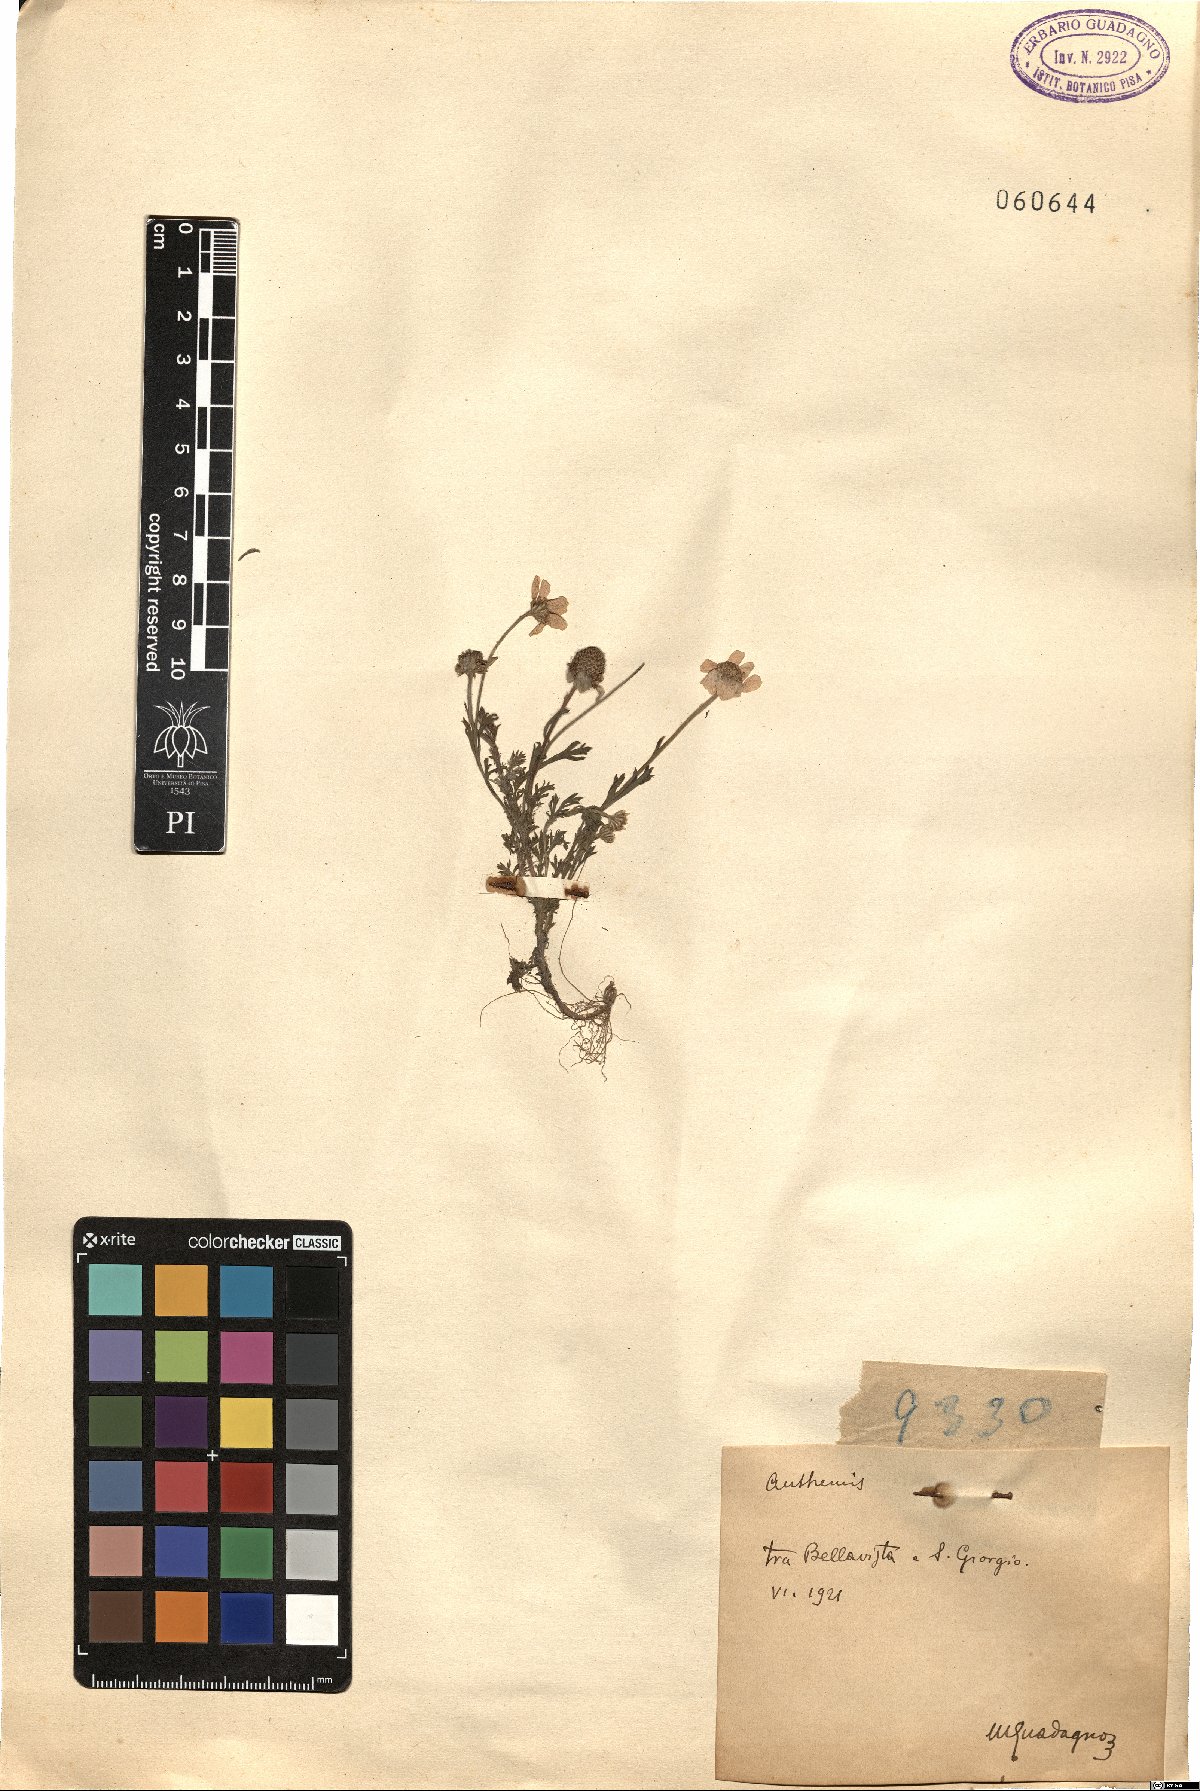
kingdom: Plantae
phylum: Tracheophyta
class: Magnoliopsida
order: Asterales
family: Asteraceae
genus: Anthemis
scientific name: Anthemis
